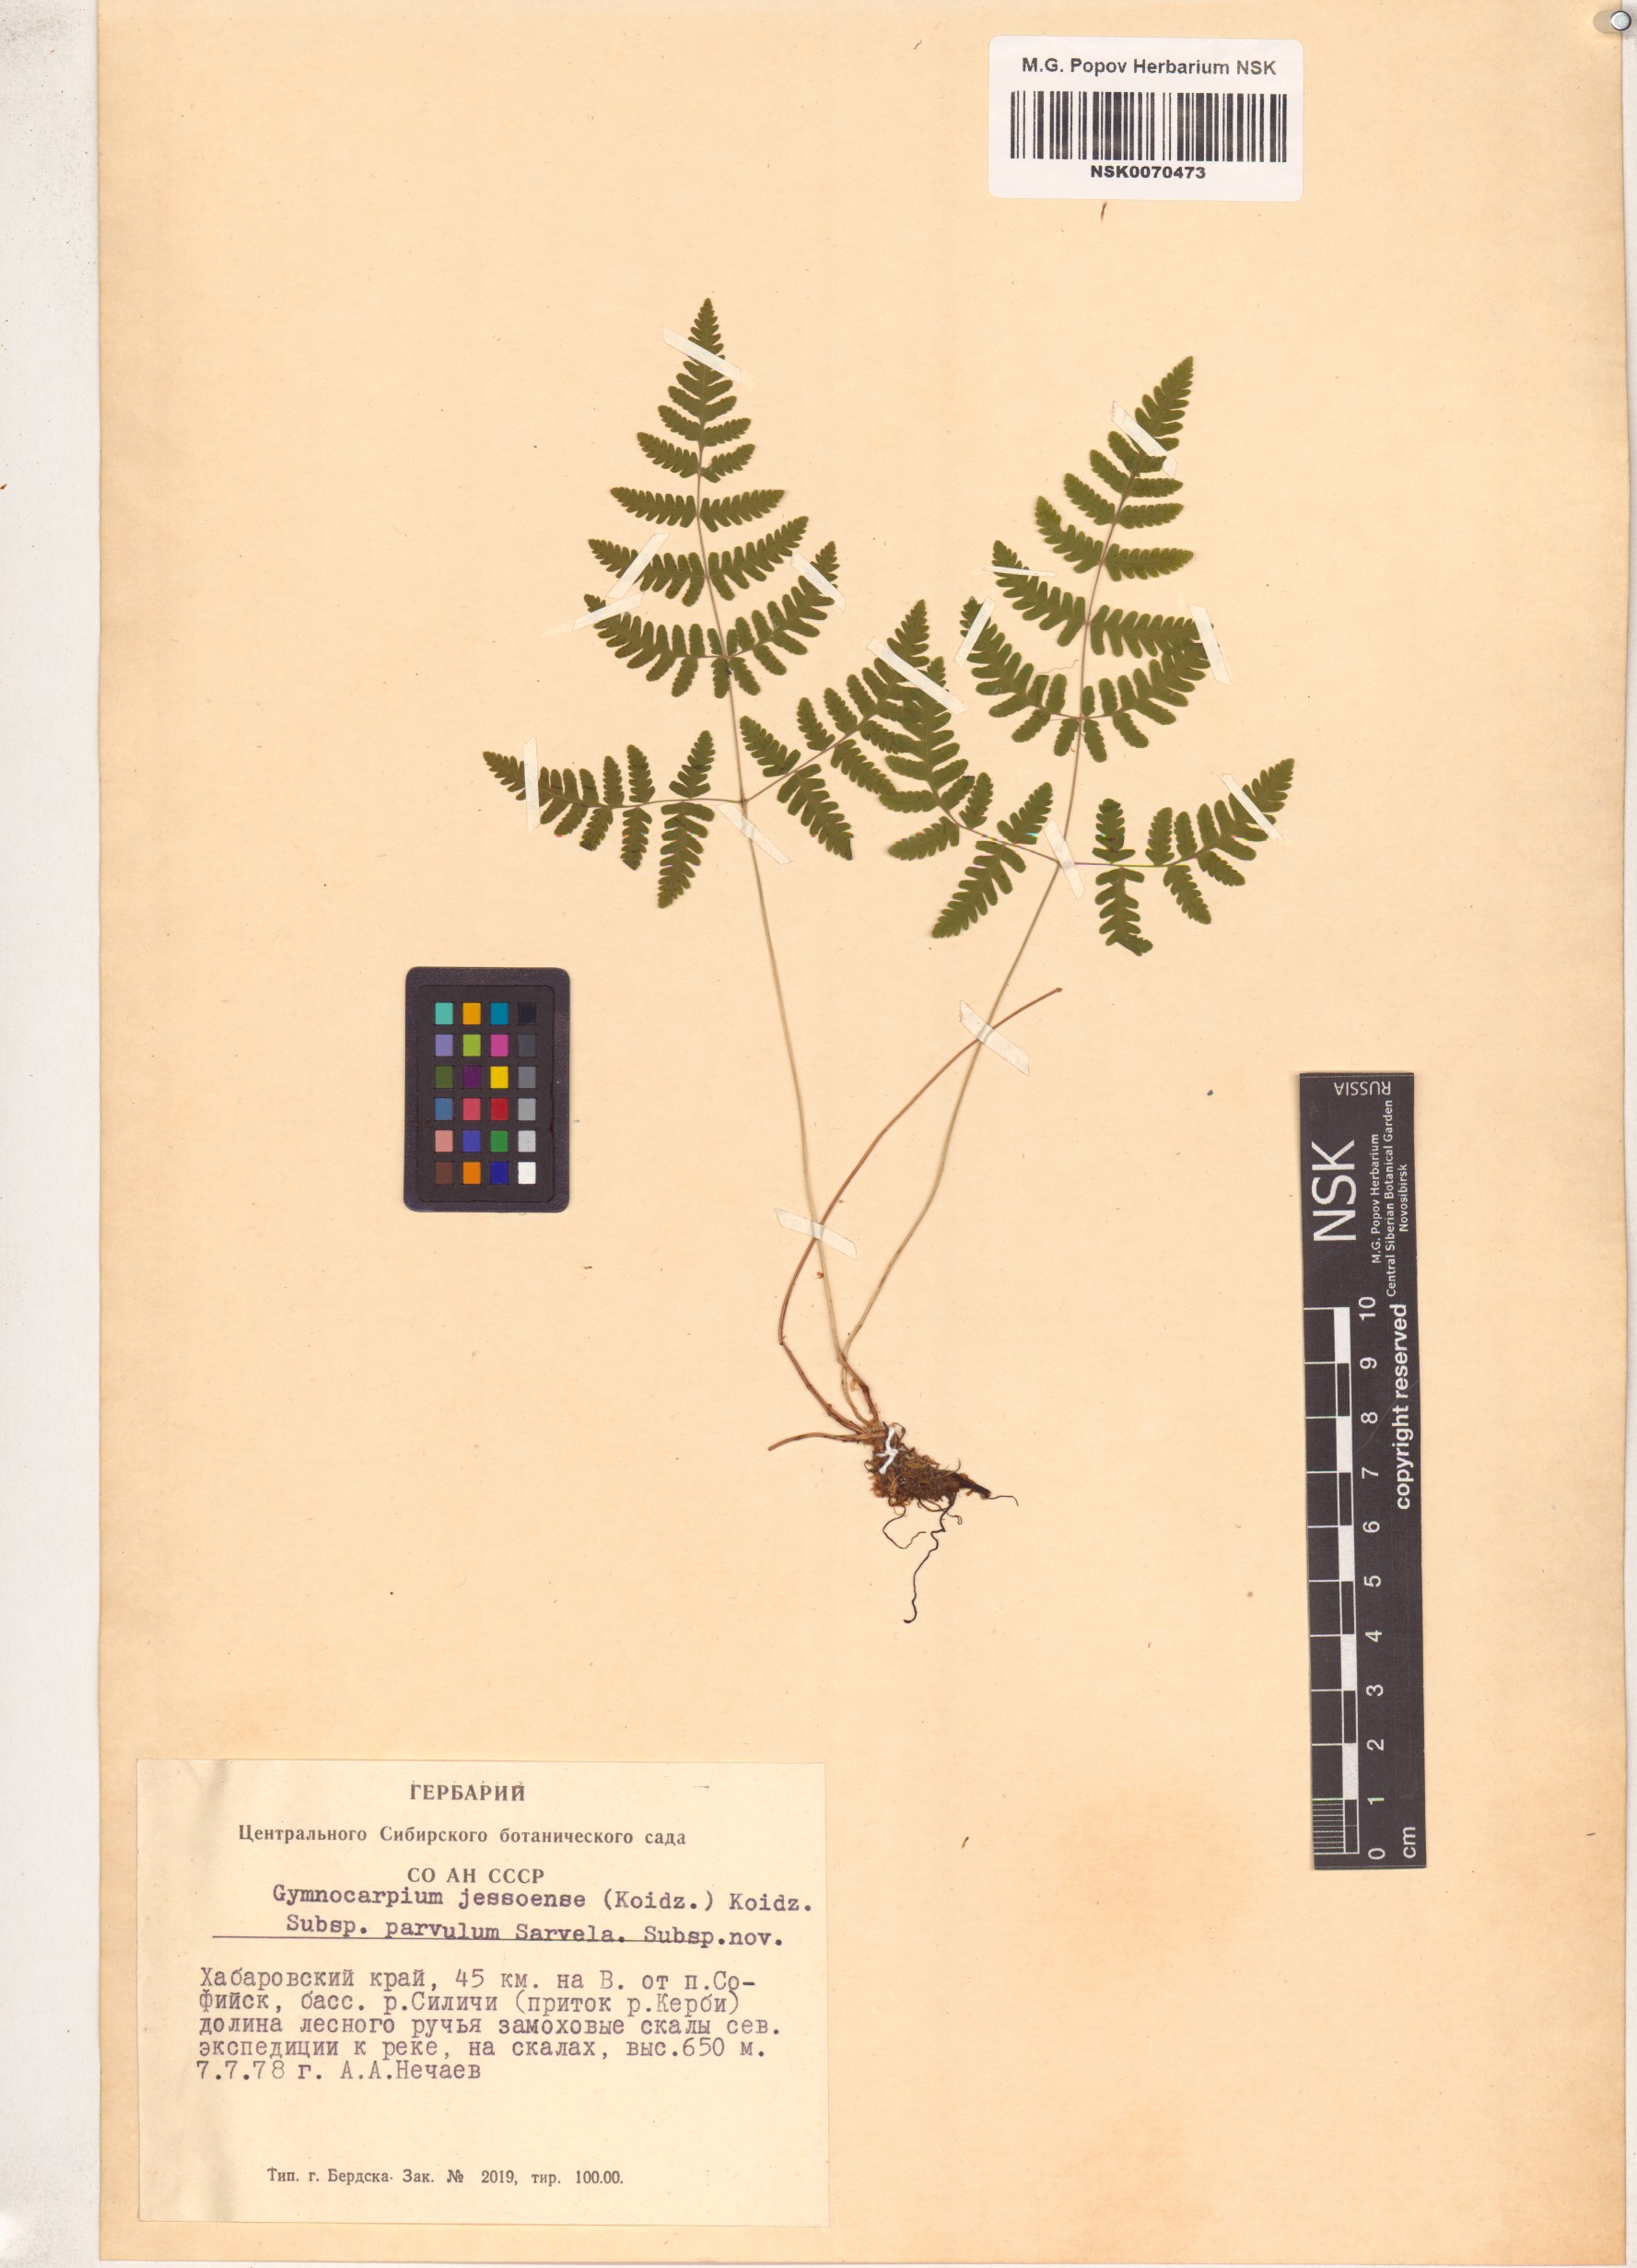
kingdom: Plantae
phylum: Tracheophyta
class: Polypodiopsida
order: Polypodiales
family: Cystopteridaceae
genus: Gymnocarpium
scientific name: Gymnocarpium continentale
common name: Asian oak fern
